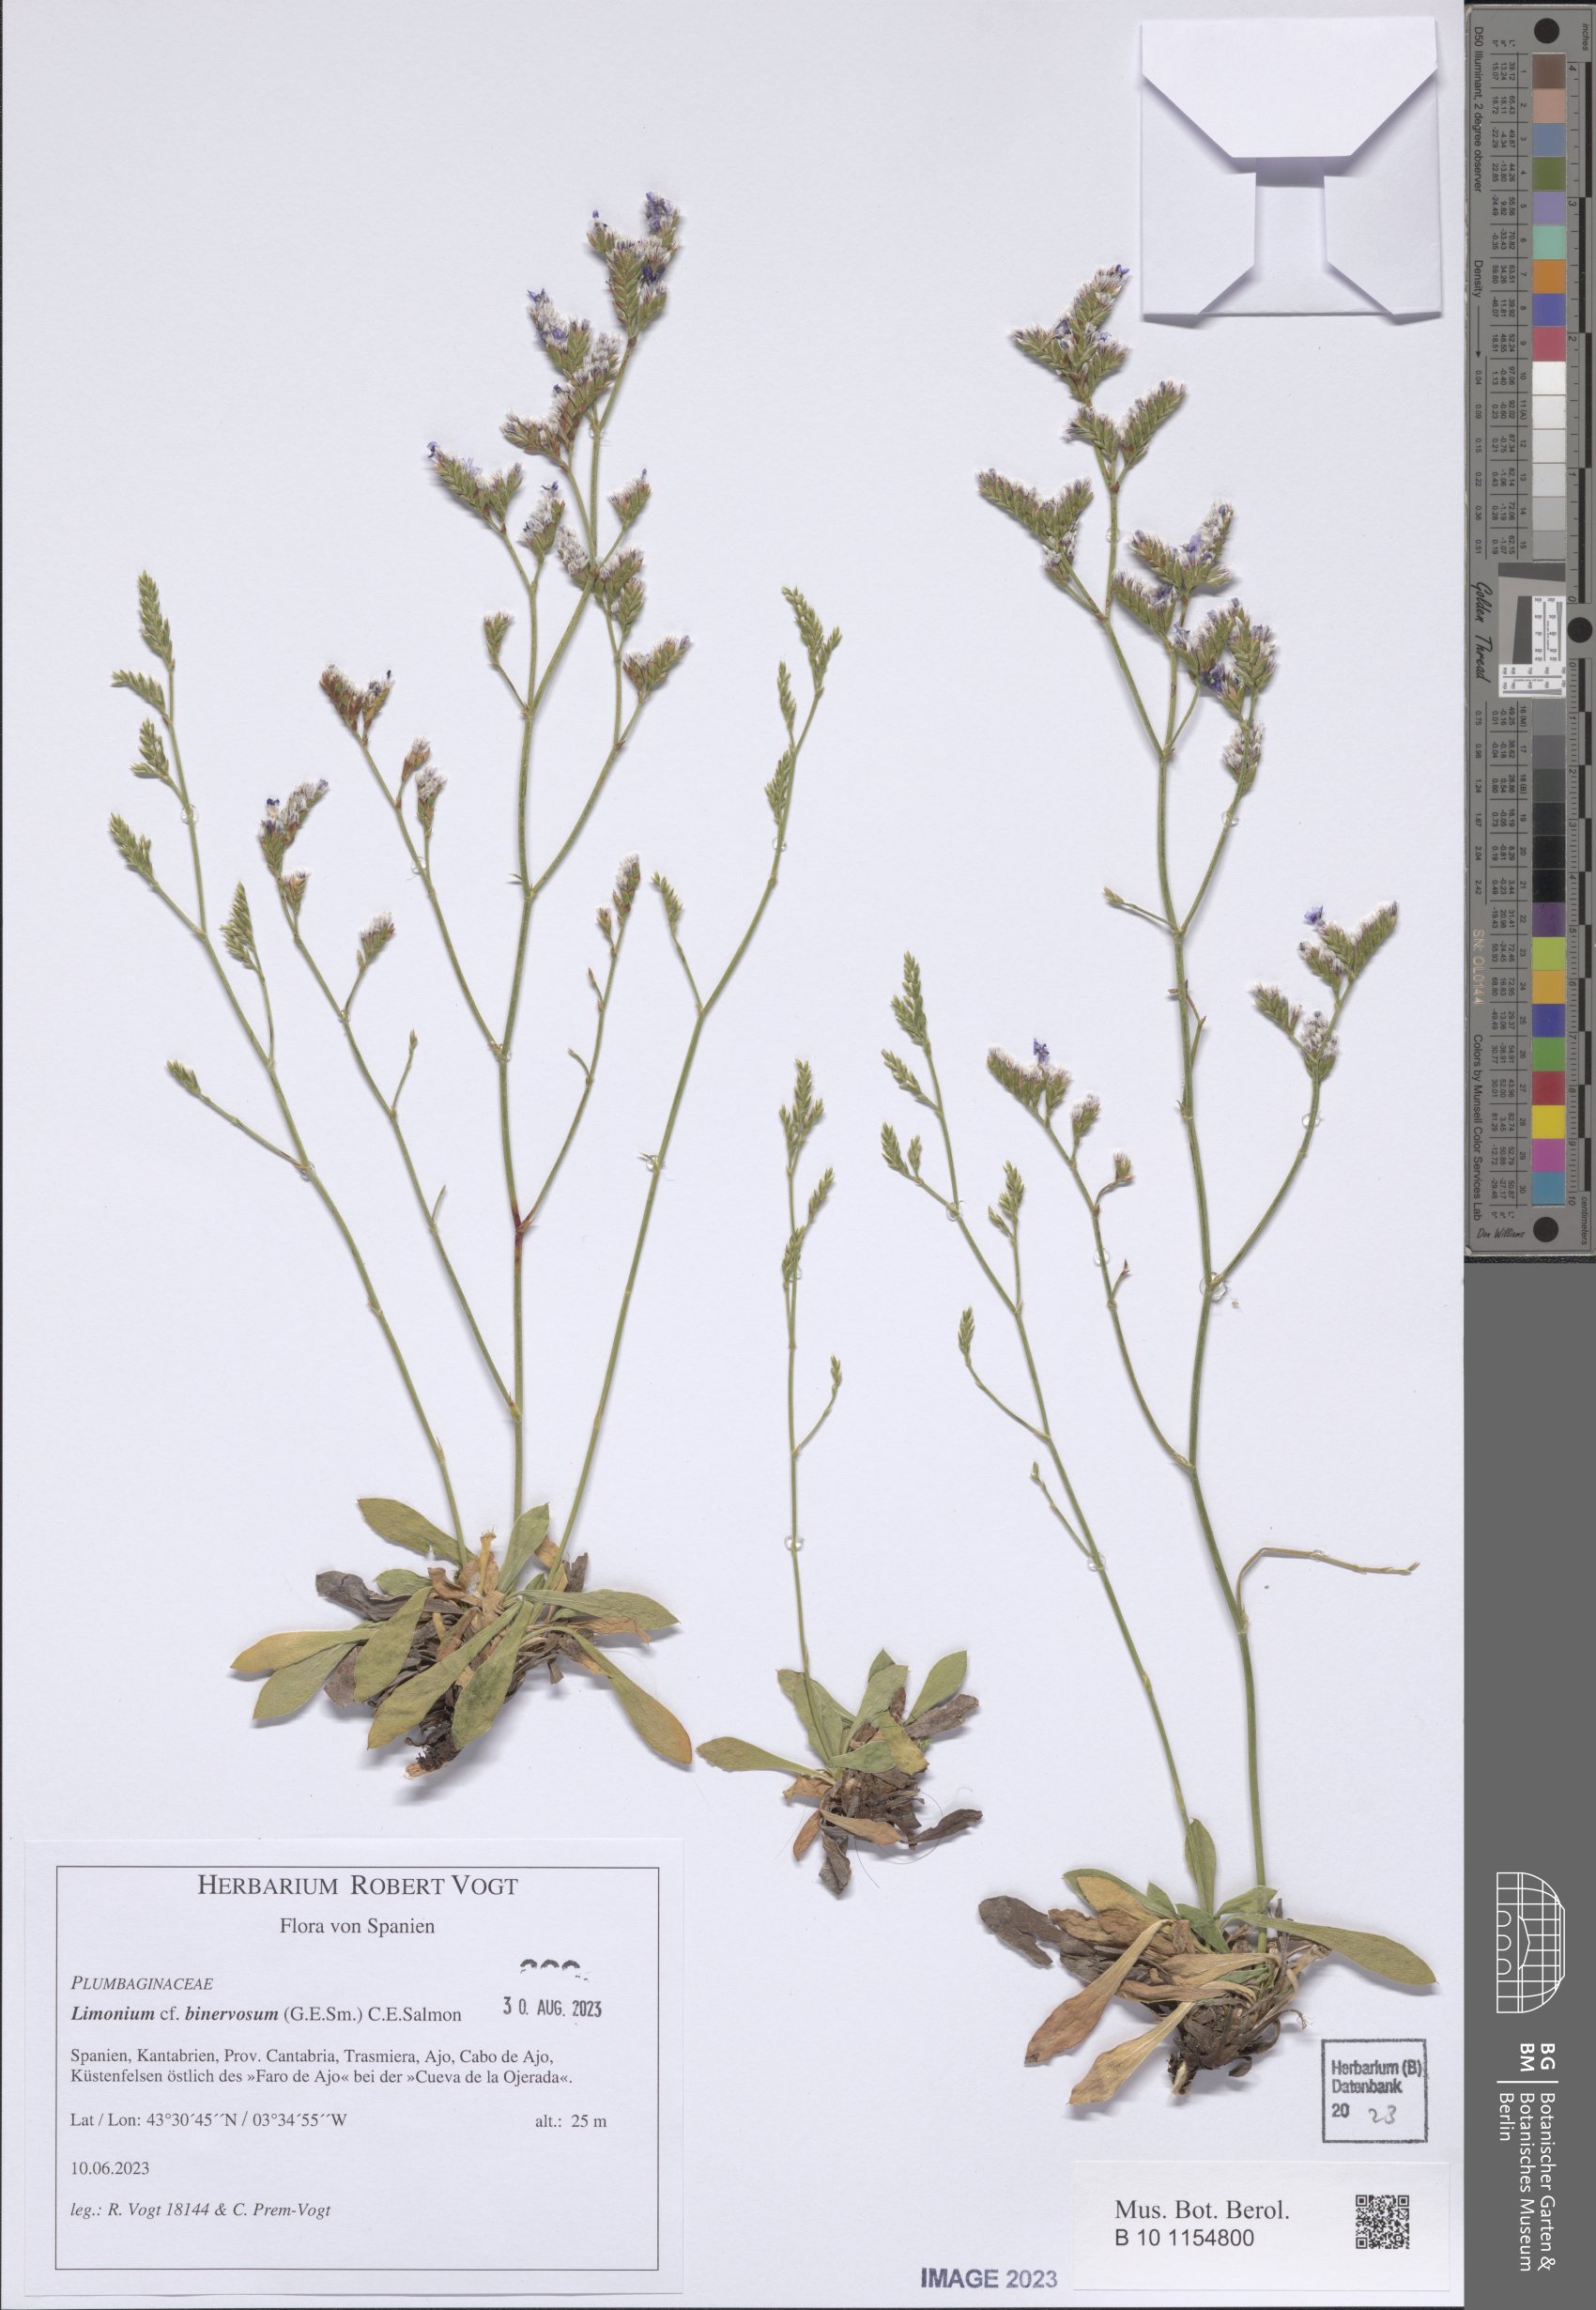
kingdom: Plantae
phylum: Tracheophyta
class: Magnoliopsida
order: Caryophyllales
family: Plumbaginaceae
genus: Limonium
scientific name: Limonium binervosum
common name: Rock sea-lavender
